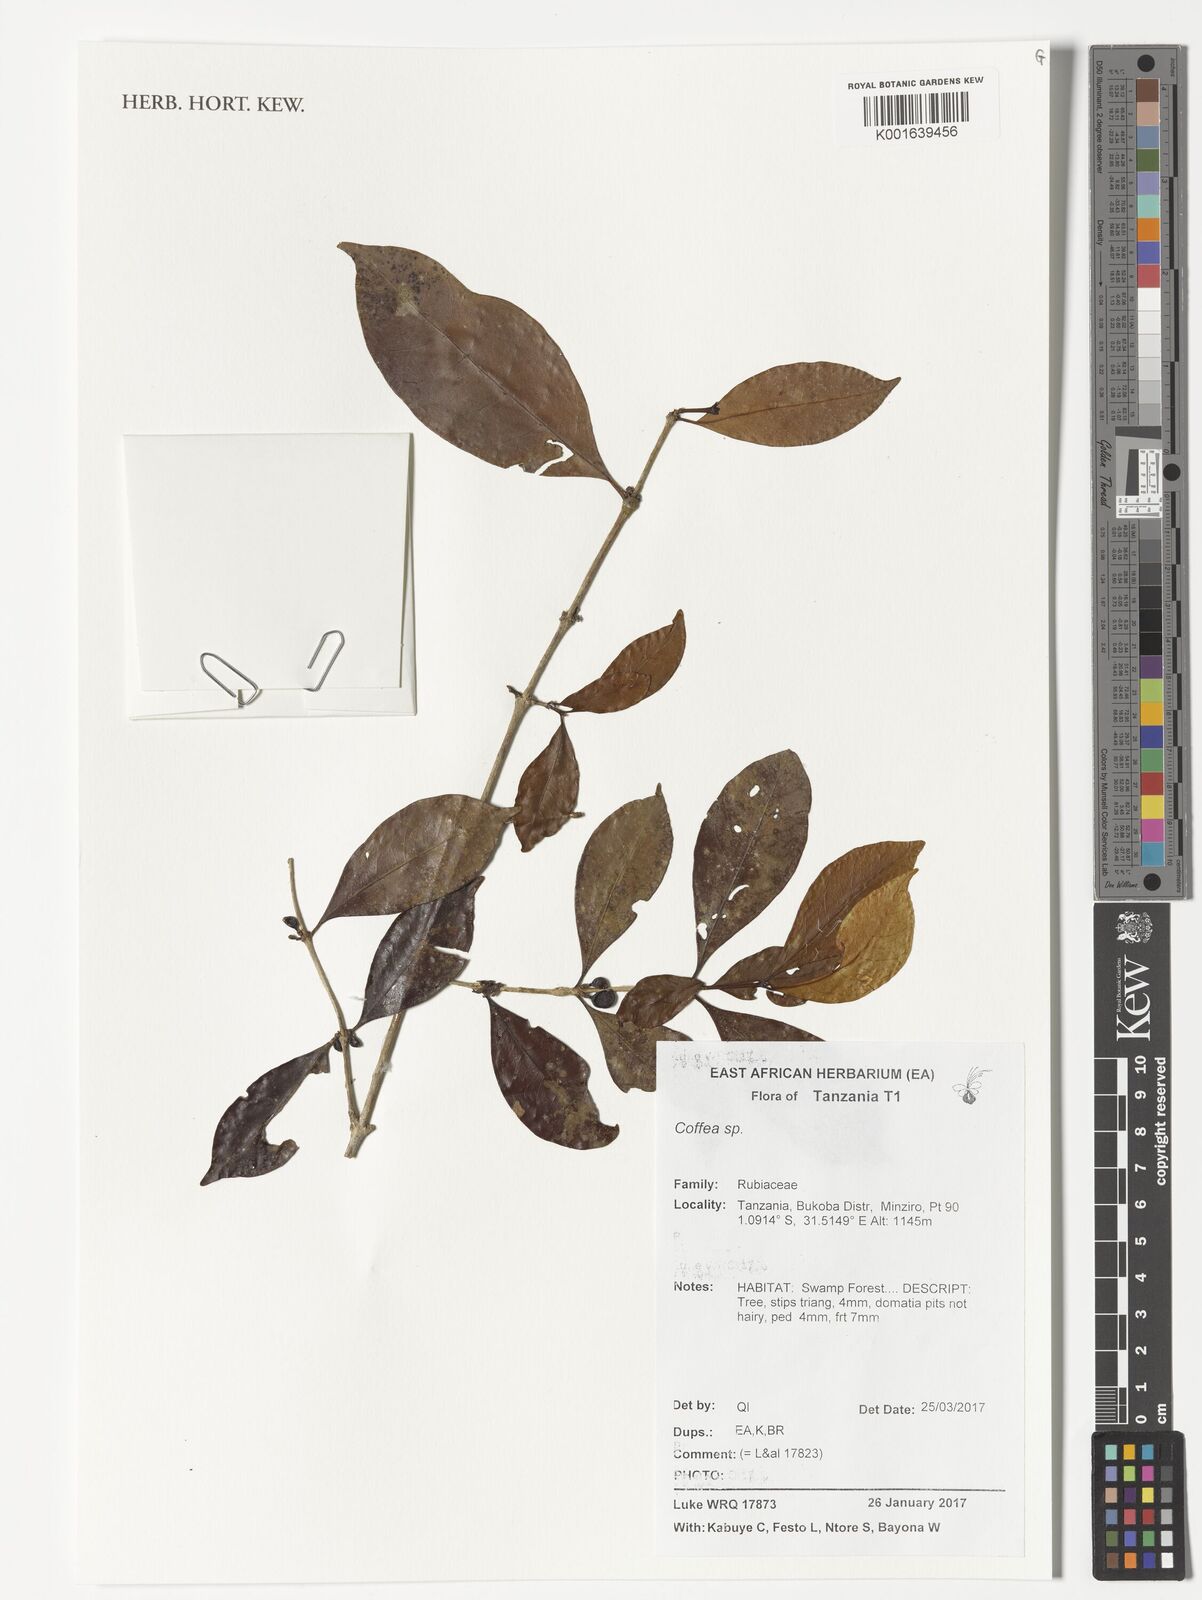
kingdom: Plantae
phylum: Tracheophyta
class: Magnoliopsida
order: Gentianales
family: Rubiaceae
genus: Coffea
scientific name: Coffea
